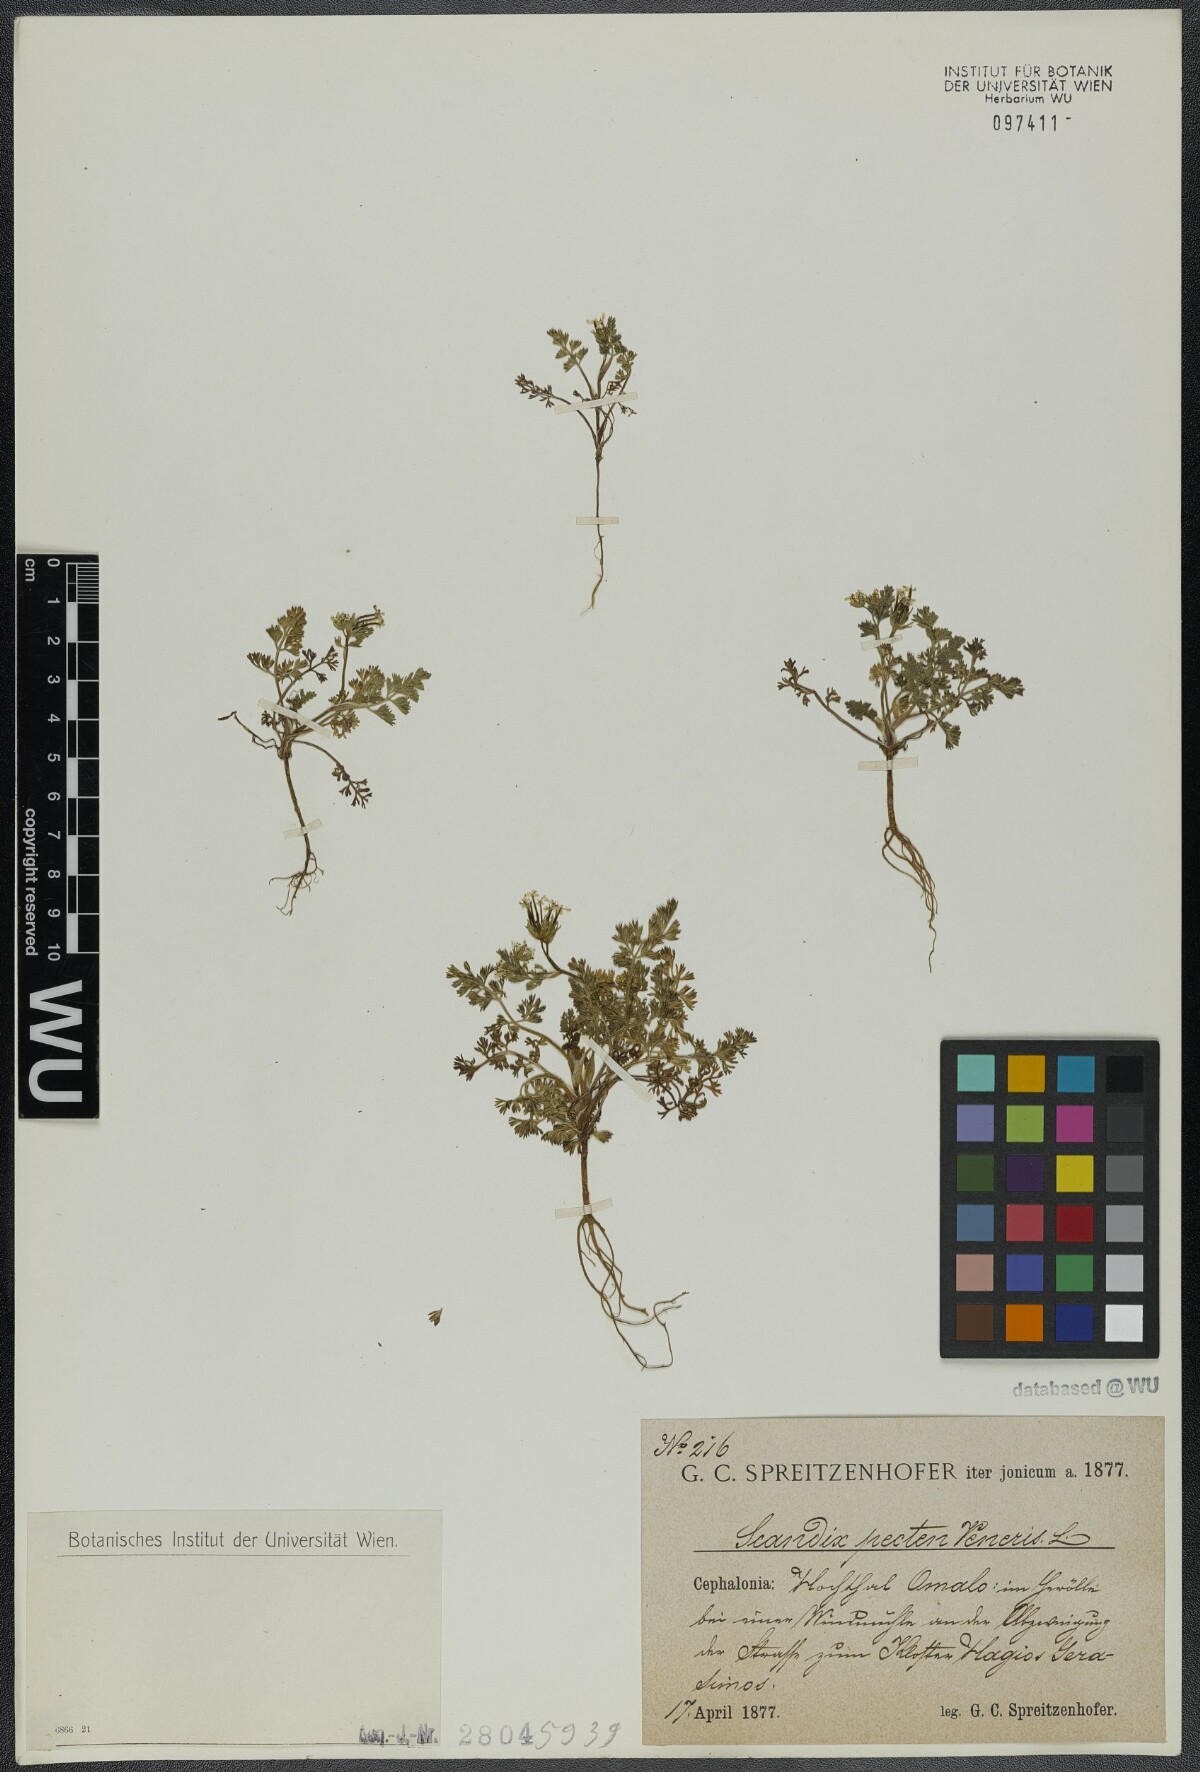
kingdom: Plantae
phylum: Tracheophyta
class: Magnoliopsida
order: Apiales
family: Apiaceae
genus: Scandix
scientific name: Scandix pecten-veneris
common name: Shepherd's-needle
